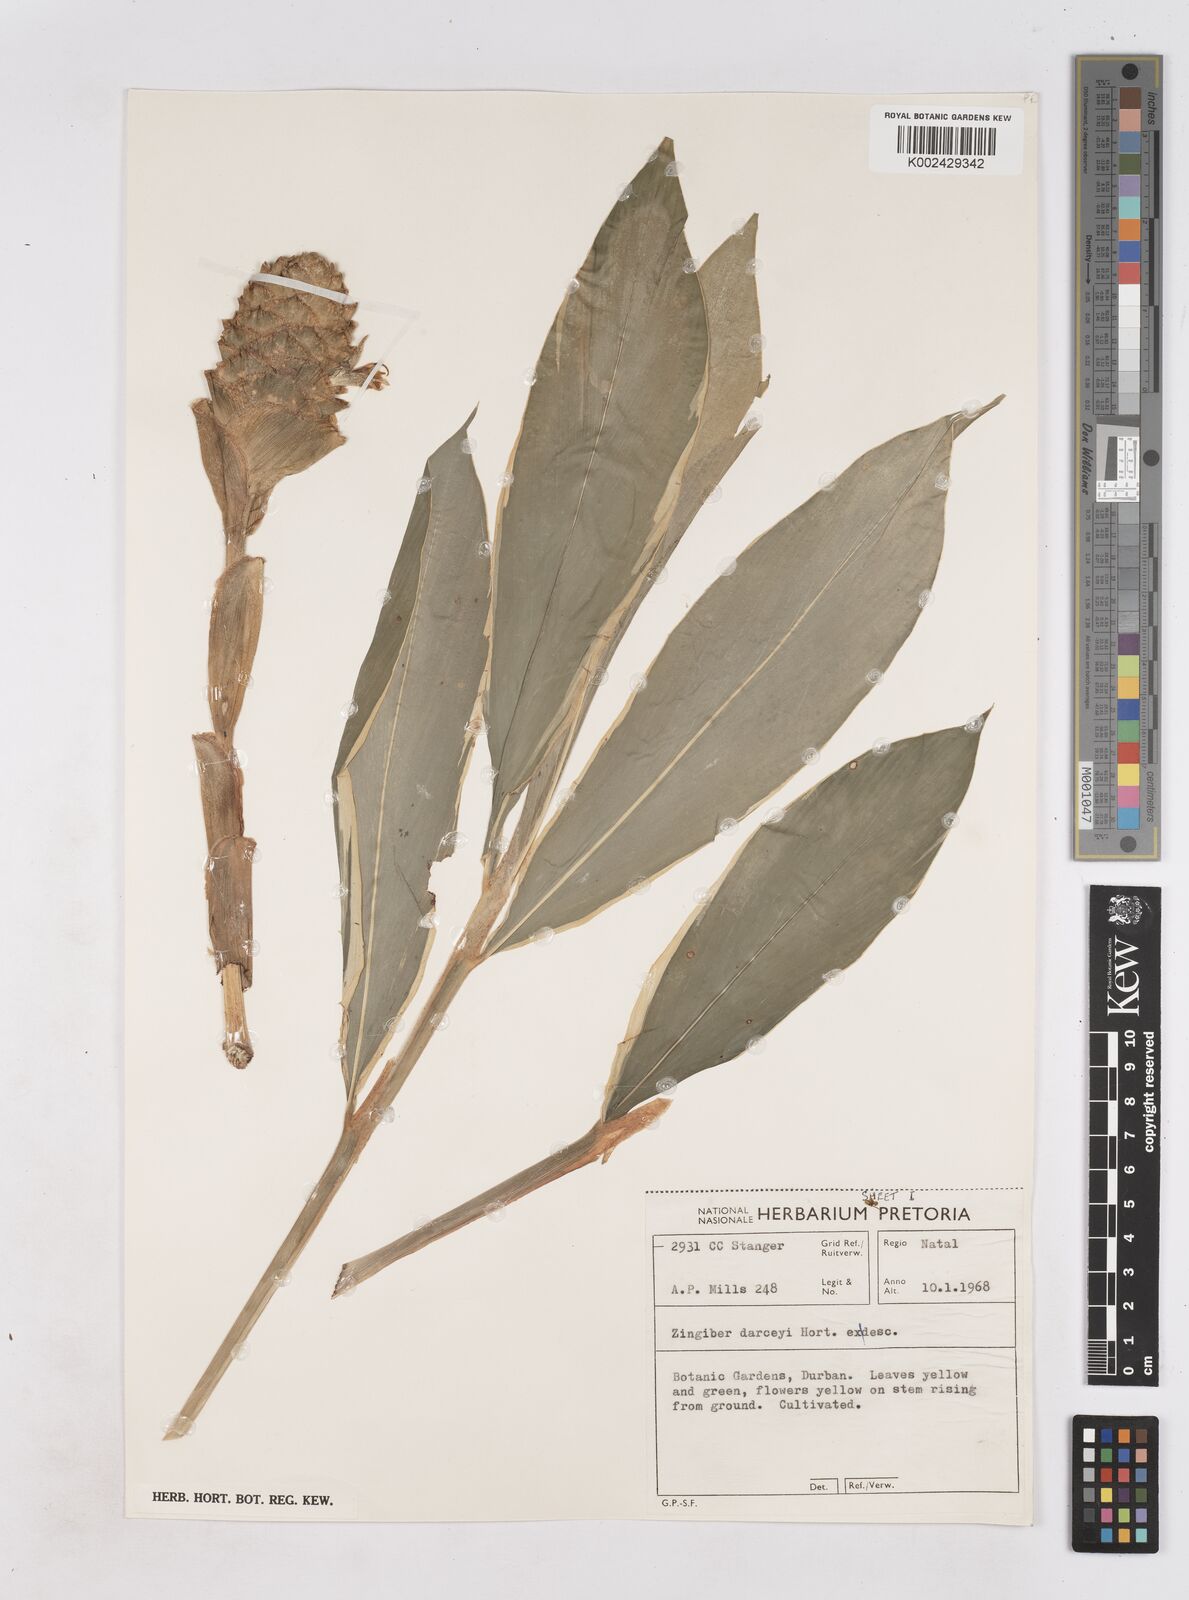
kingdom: Plantae
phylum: Tracheophyta
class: Liliopsida
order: Zingiberales
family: Zingiberaceae
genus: Zingiber
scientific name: Zingiber zerumbet
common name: Bitter ginger
